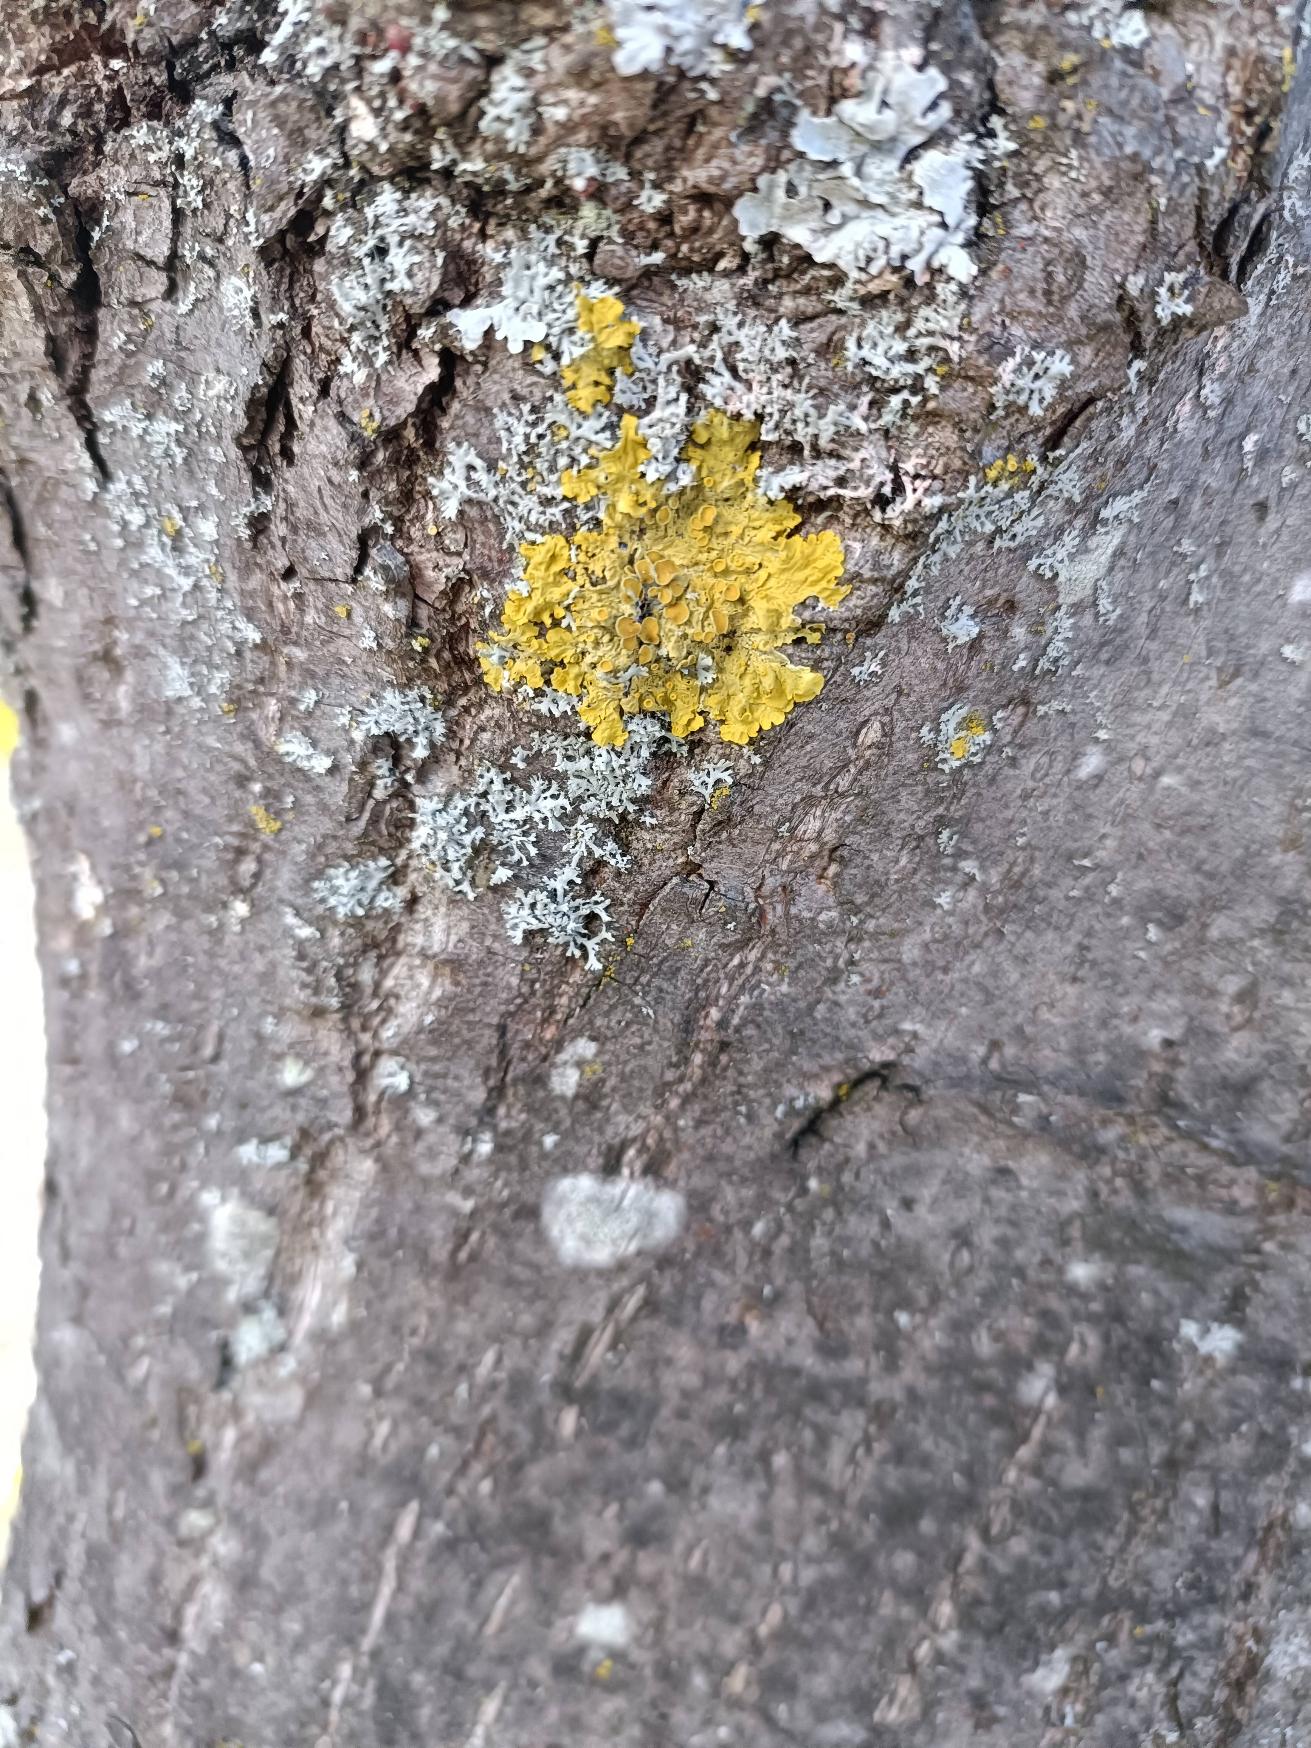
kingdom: Fungi
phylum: Ascomycota
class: Lecanoromycetes
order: Teloschistales
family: Teloschistaceae
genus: Xanthoria
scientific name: Xanthoria parietina
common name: Almindelig væggelav
